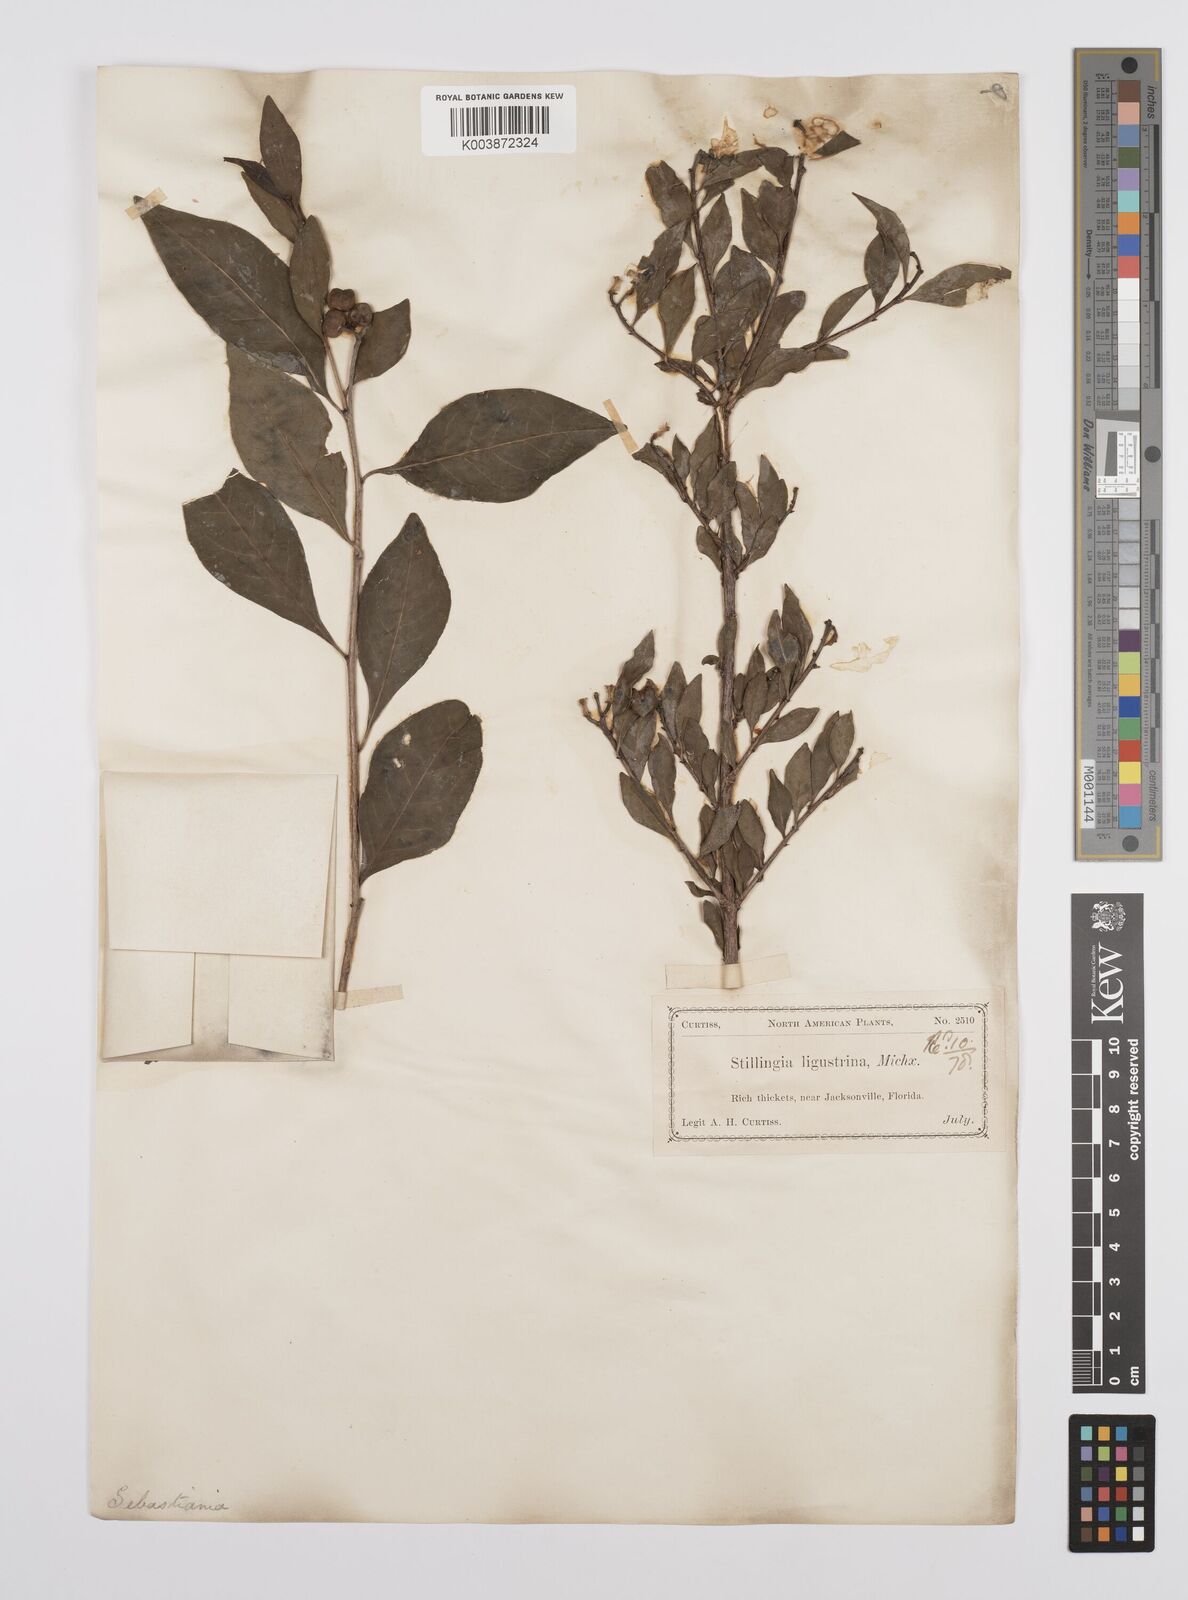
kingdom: Plantae
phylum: Tracheophyta
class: Magnoliopsida
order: Malpighiales
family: Euphorbiaceae
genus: Ditrysinia
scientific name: Ditrysinia fruticosa
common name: Gulf sebastian-bush
